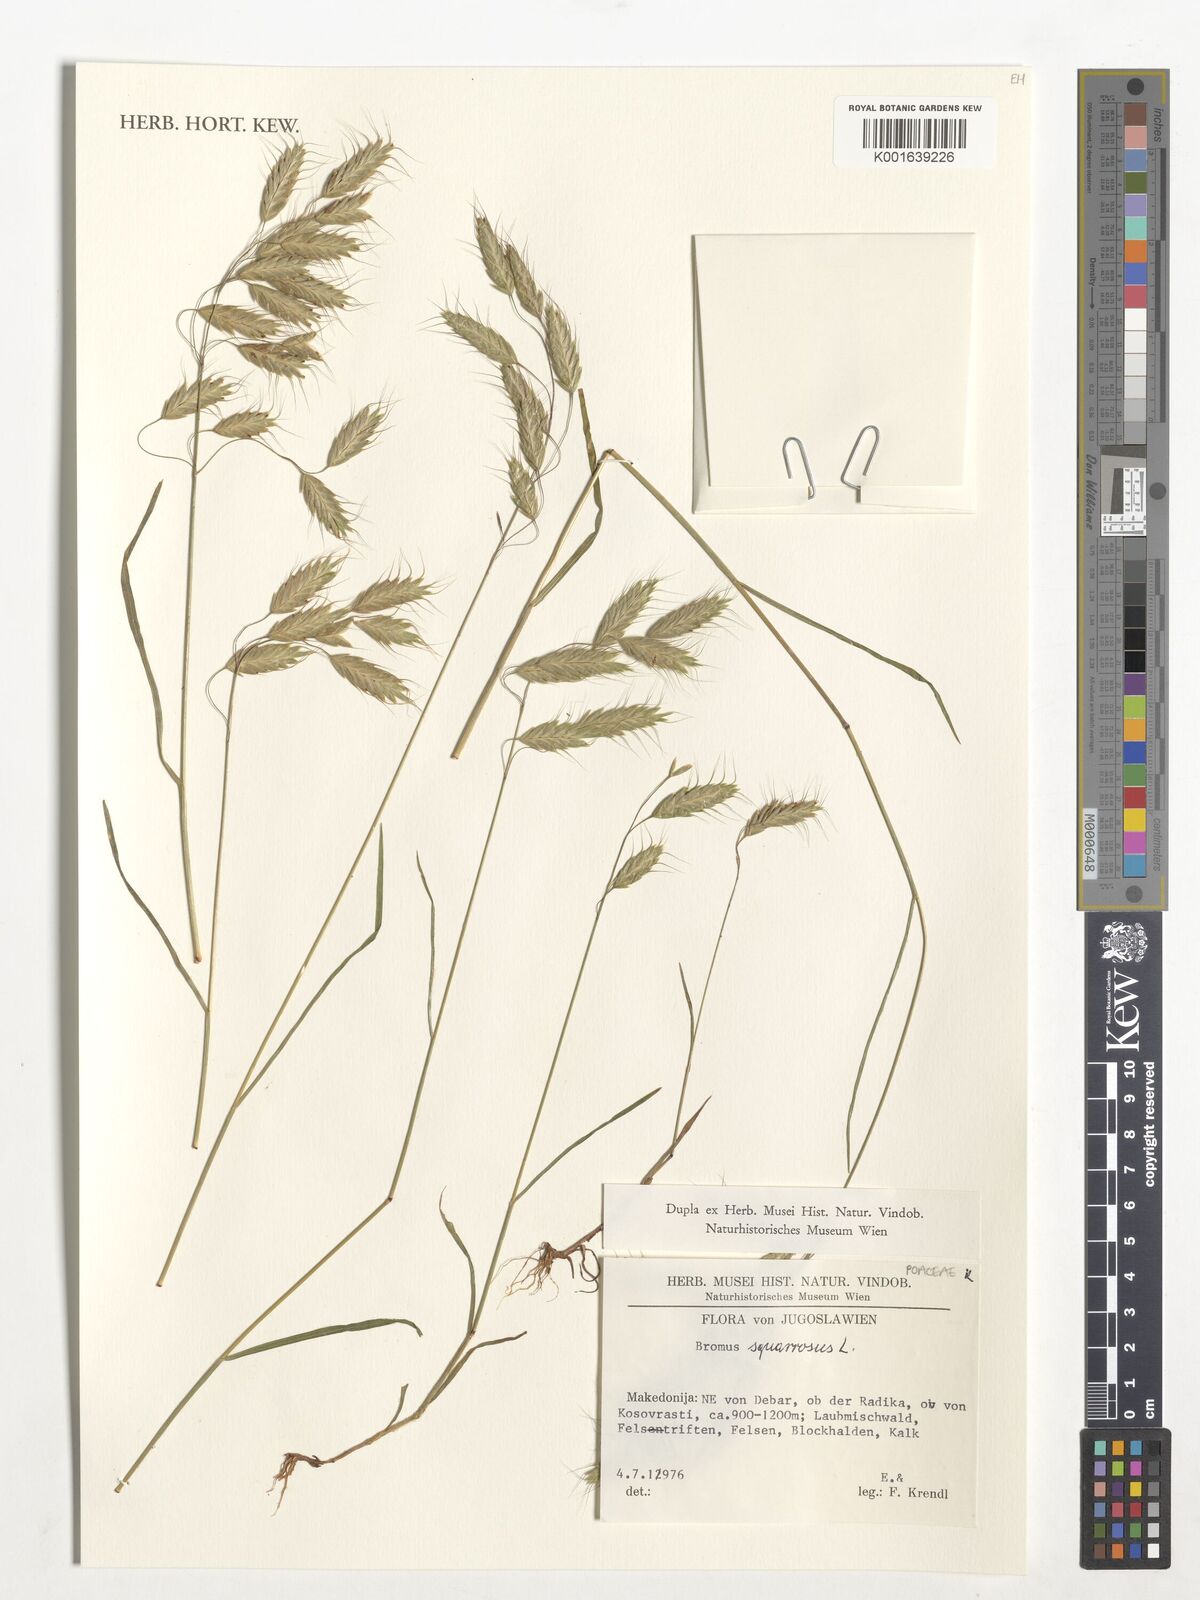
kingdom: Plantae
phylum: Tracheophyta
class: Liliopsida
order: Poales
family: Poaceae
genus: Bromus
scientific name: Bromus squarrosus
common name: Corn brome
